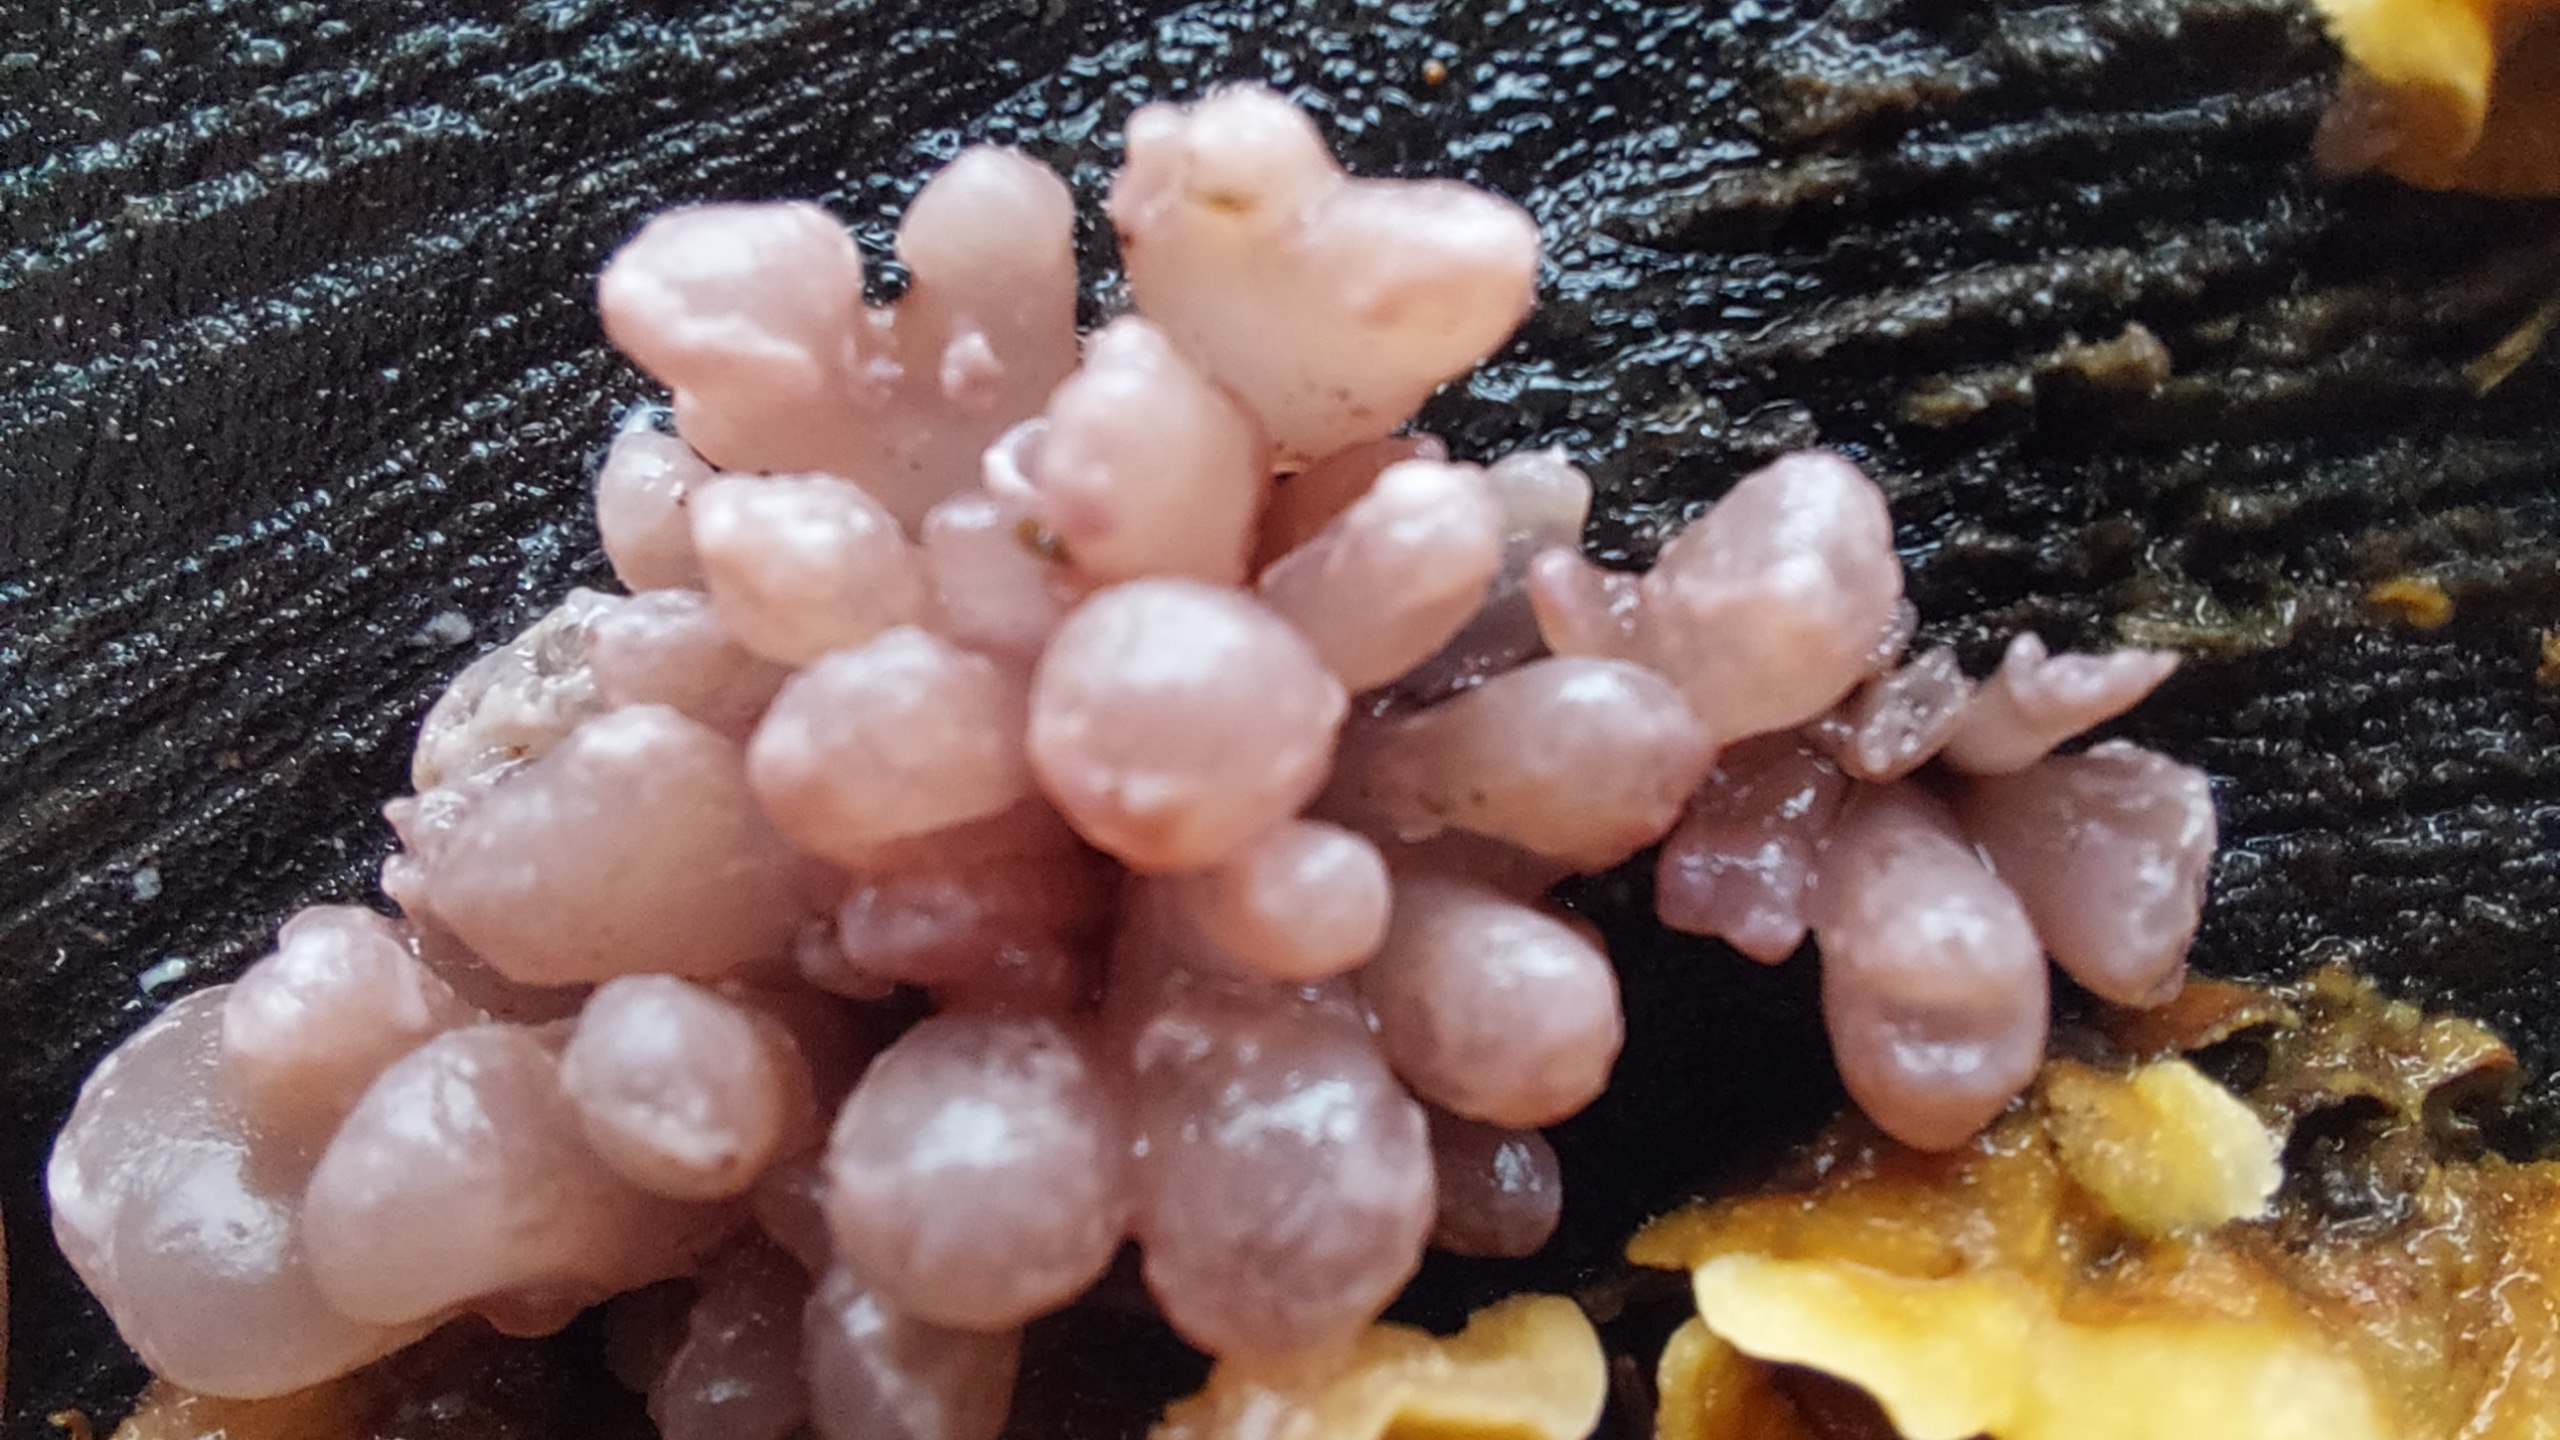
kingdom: Fungi
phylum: Ascomycota
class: Leotiomycetes
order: Helotiales
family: Gelatinodiscaceae
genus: Ascocoryne
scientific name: Ascocoryne sarcoides
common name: rødlilla sejskive
